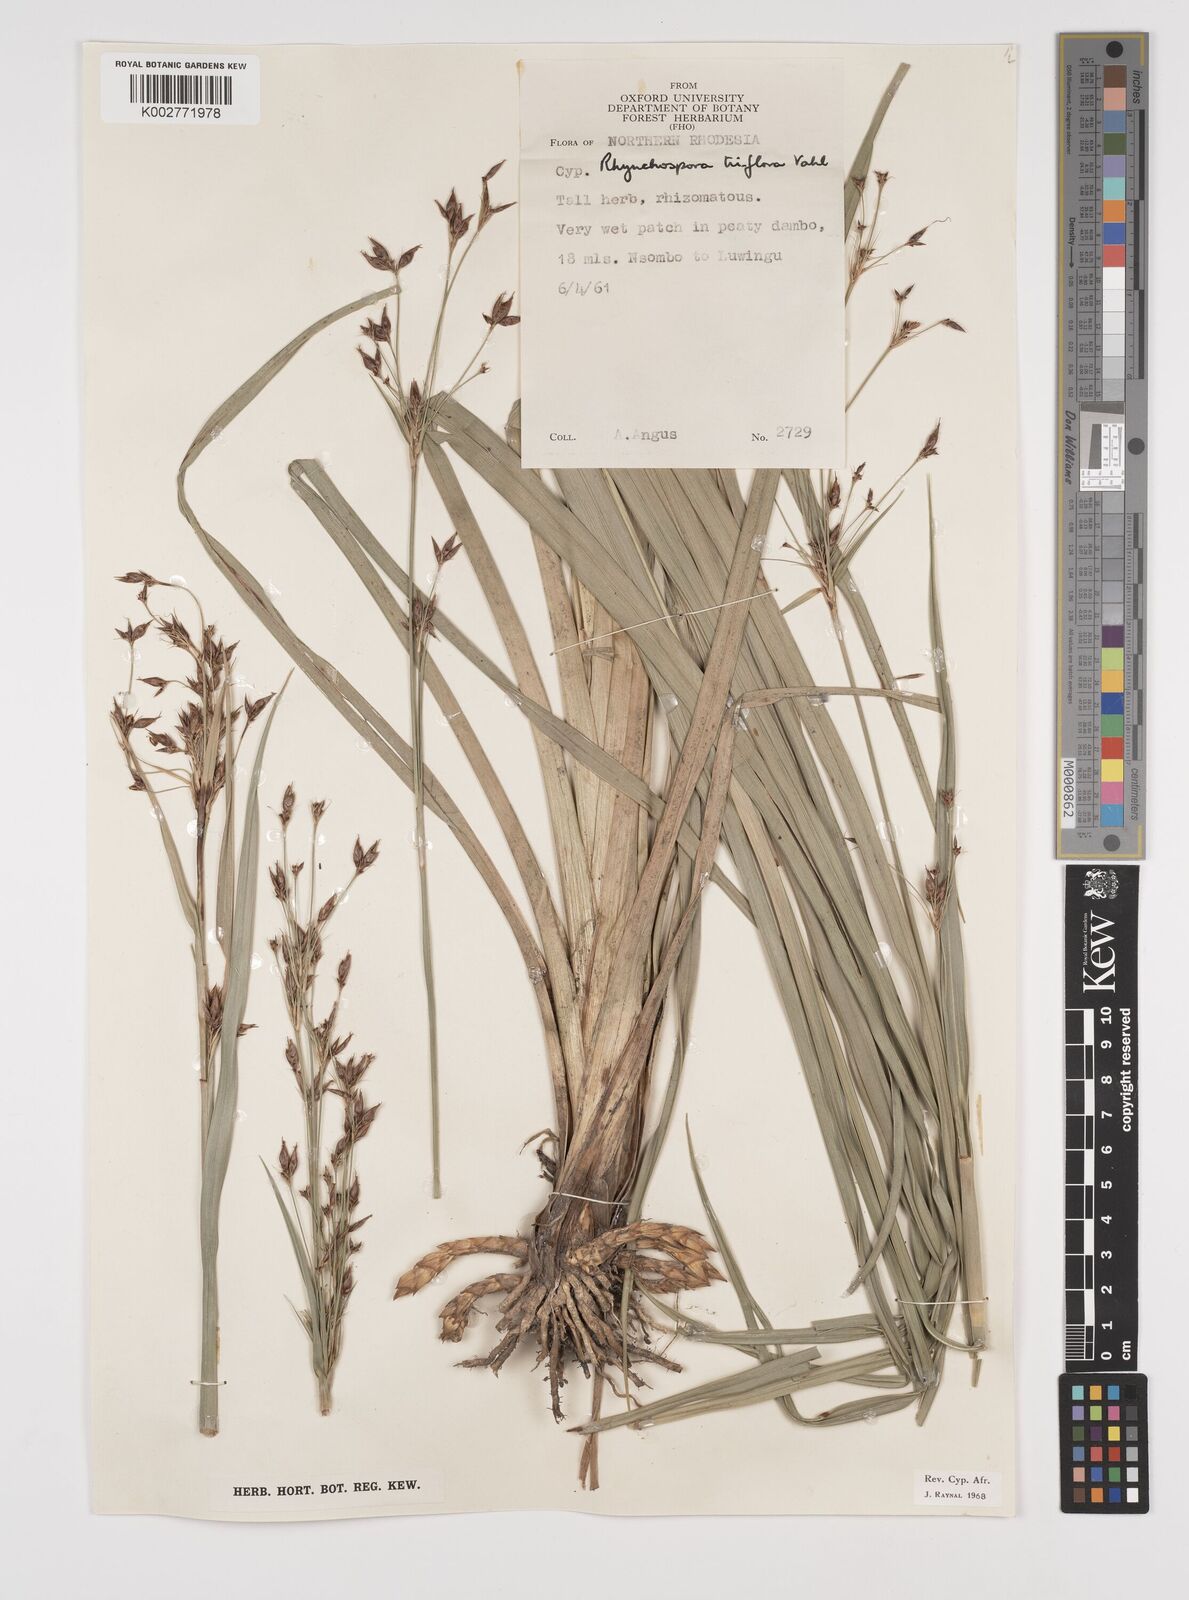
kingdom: Plantae
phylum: Tracheophyta
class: Liliopsida
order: Poales
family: Cyperaceae
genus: Rhynchospora
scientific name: Rhynchospora triflora
